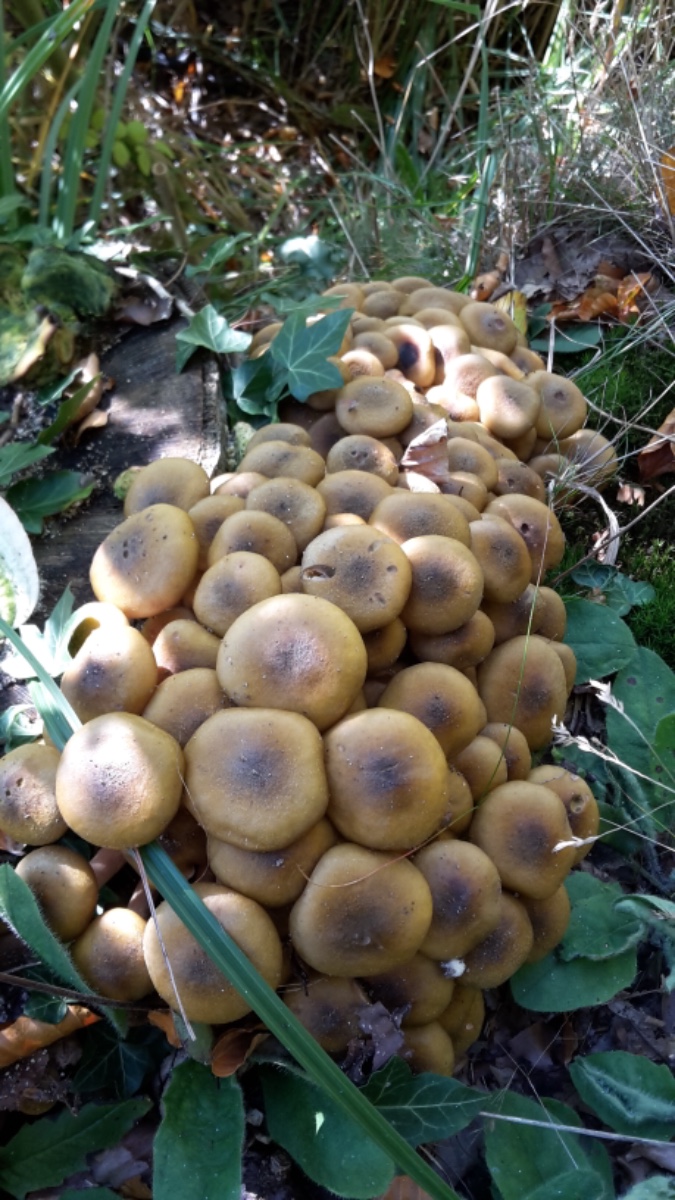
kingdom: Fungi
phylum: Basidiomycota
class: Agaricomycetes
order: Agaricales
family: Physalacriaceae
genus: Armillaria
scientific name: Armillaria mellea
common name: ægte honningsvamp
